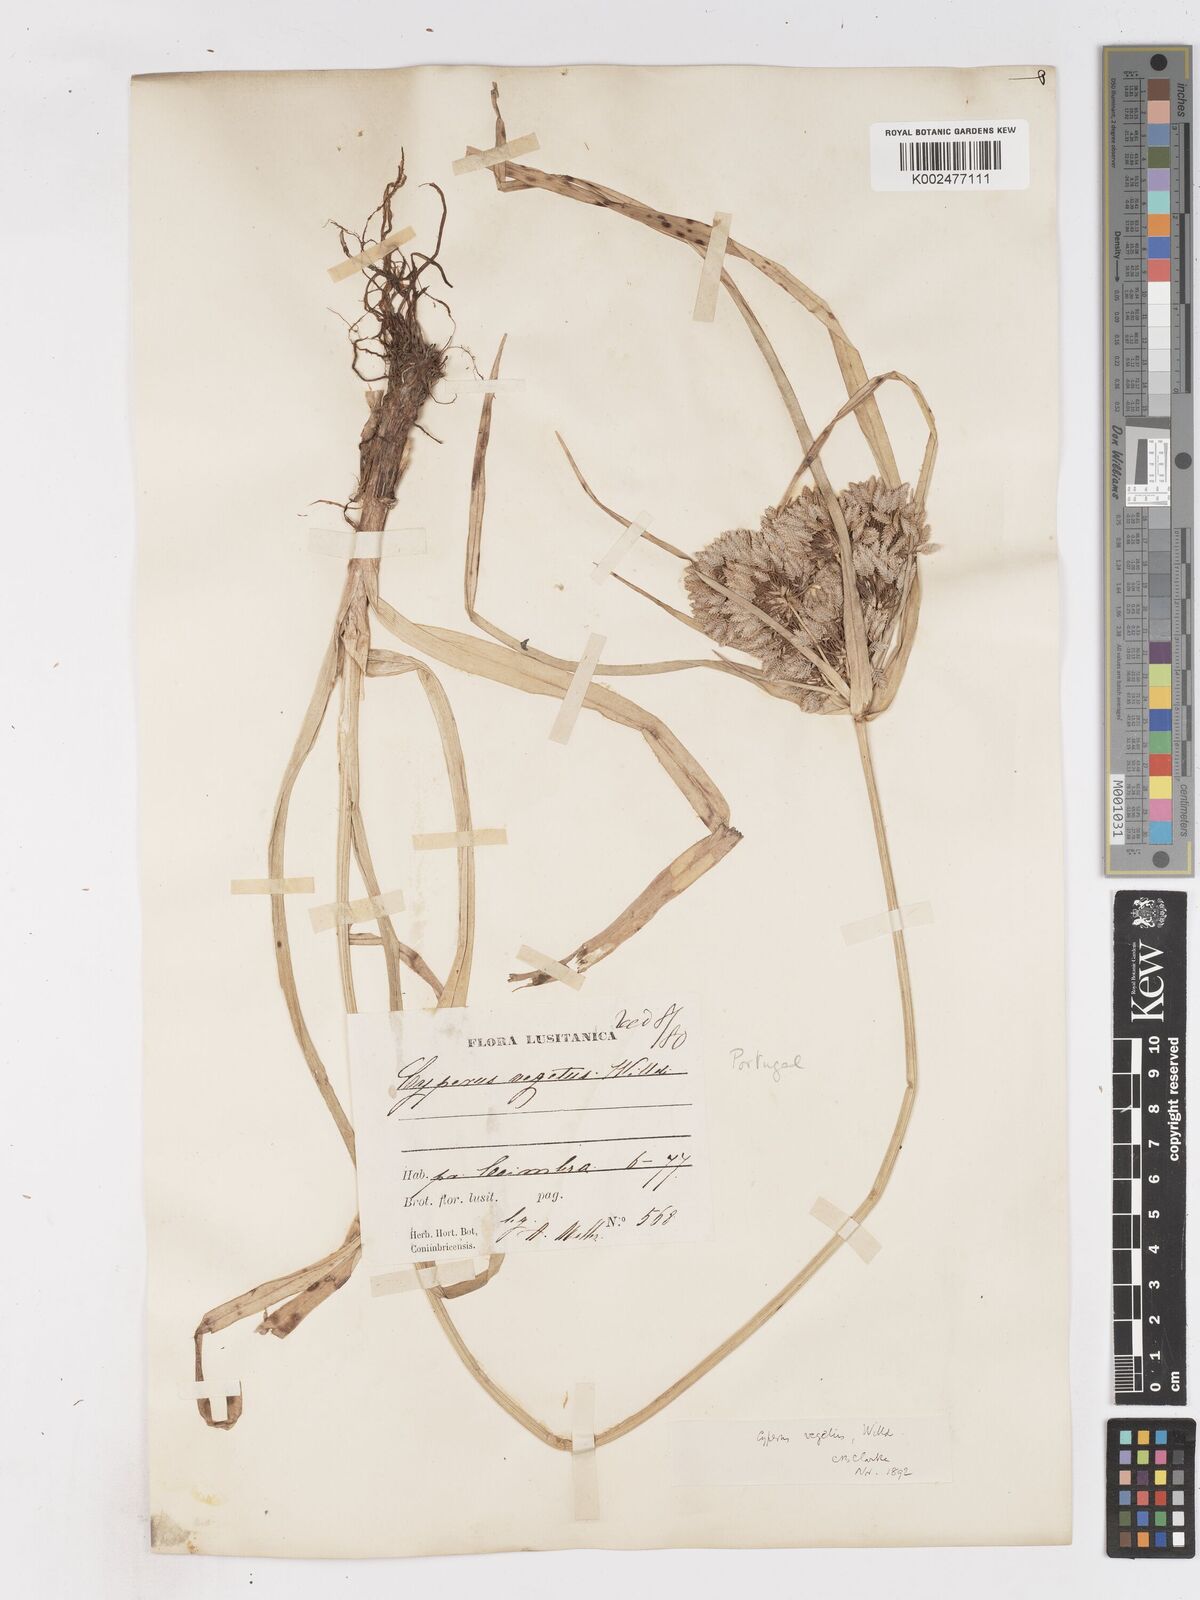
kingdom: Plantae
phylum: Tracheophyta
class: Liliopsida
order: Poales
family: Cyperaceae
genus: Cyperus
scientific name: Cyperus eragrostis
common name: Tall flatsedge
